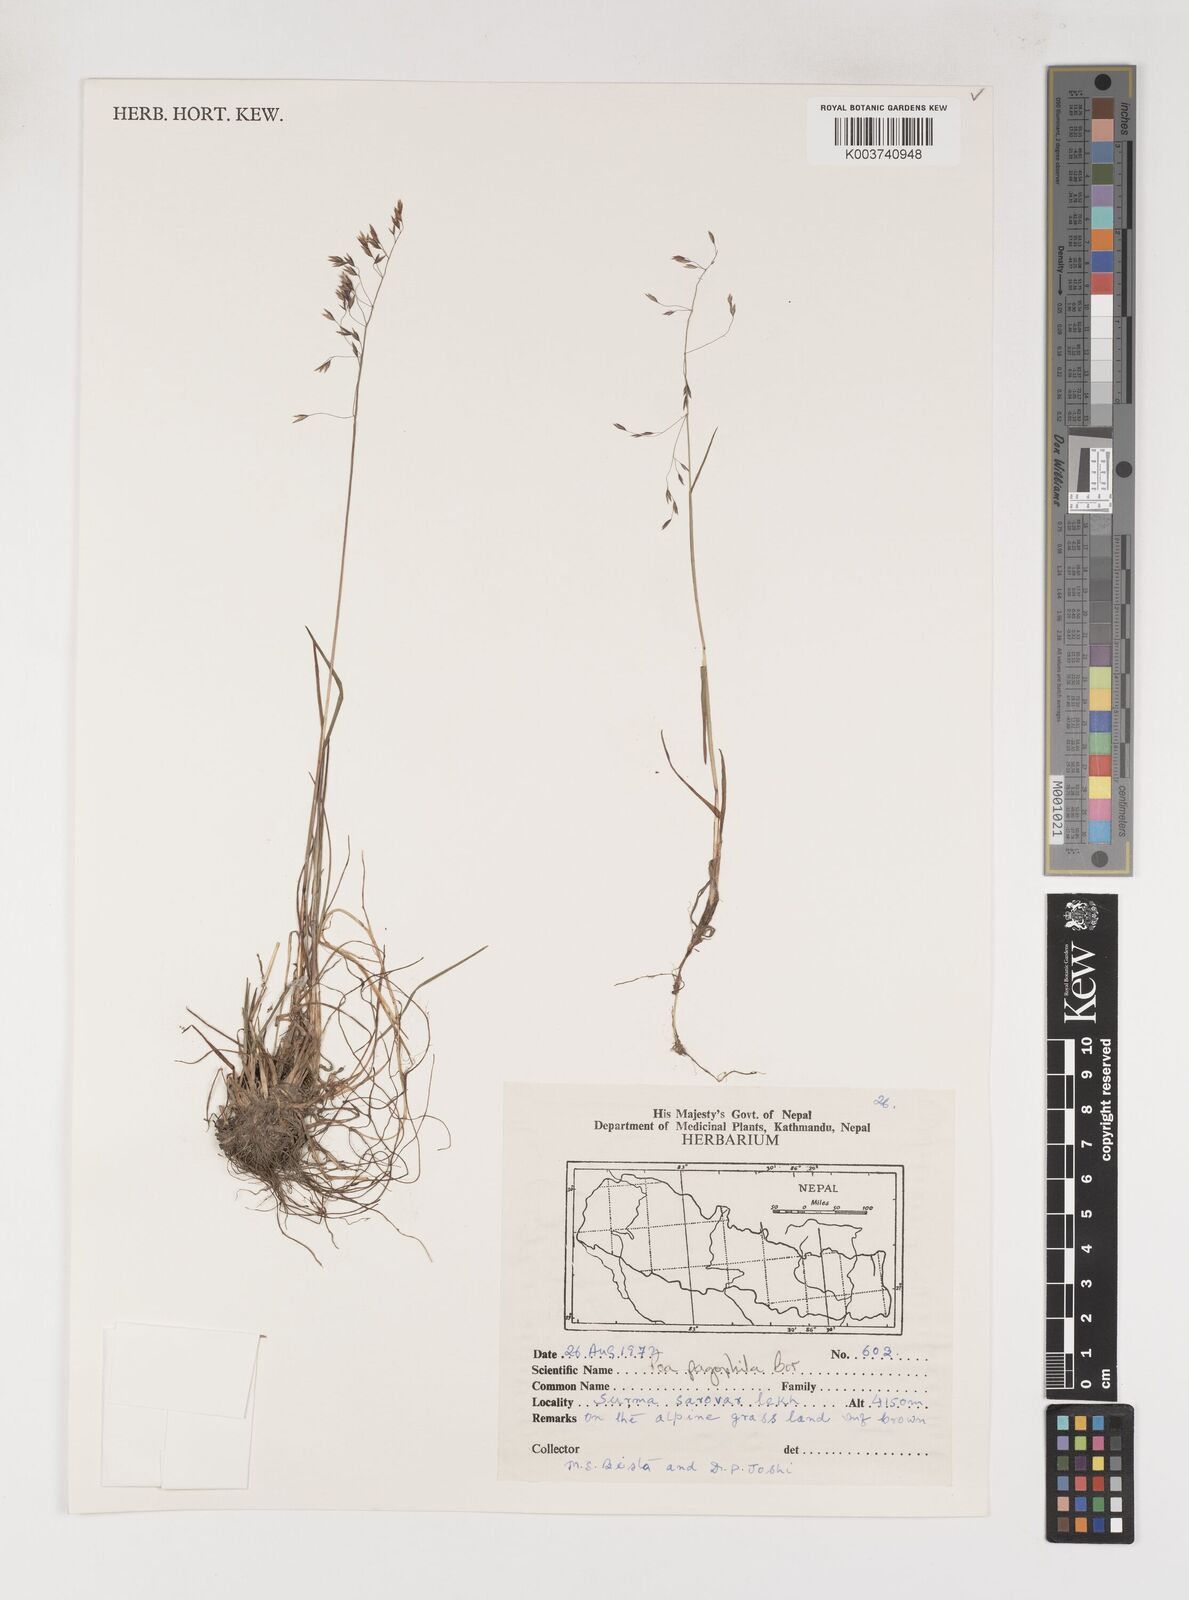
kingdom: Plantae
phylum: Tracheophyta
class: Liliopsida
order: Poales
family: Poaceae
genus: Poa
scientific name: Poa pagophila
